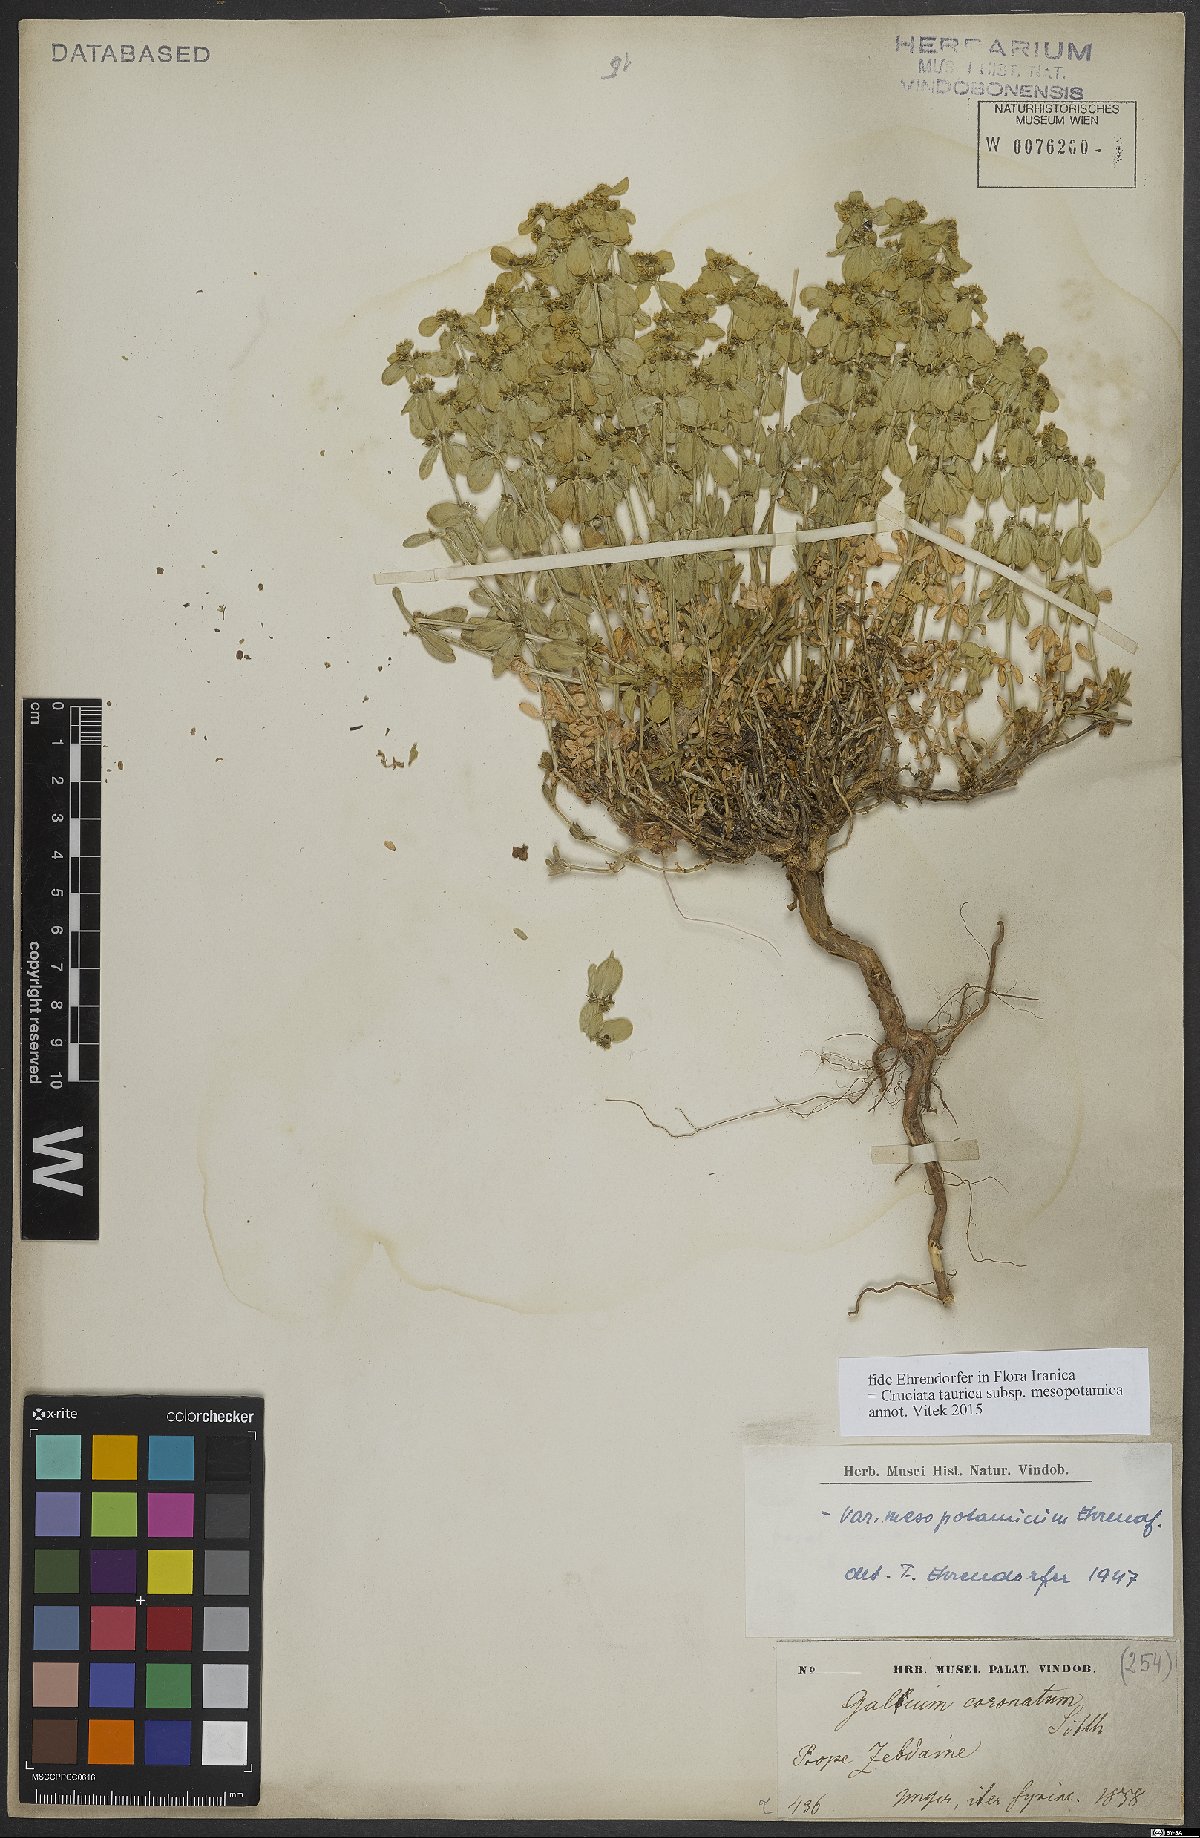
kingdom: Plantae
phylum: Tracheophyta
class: Magnoliopsida
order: Gentianales
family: Rubiaceae
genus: Cruciata
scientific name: Cruciata taurica
